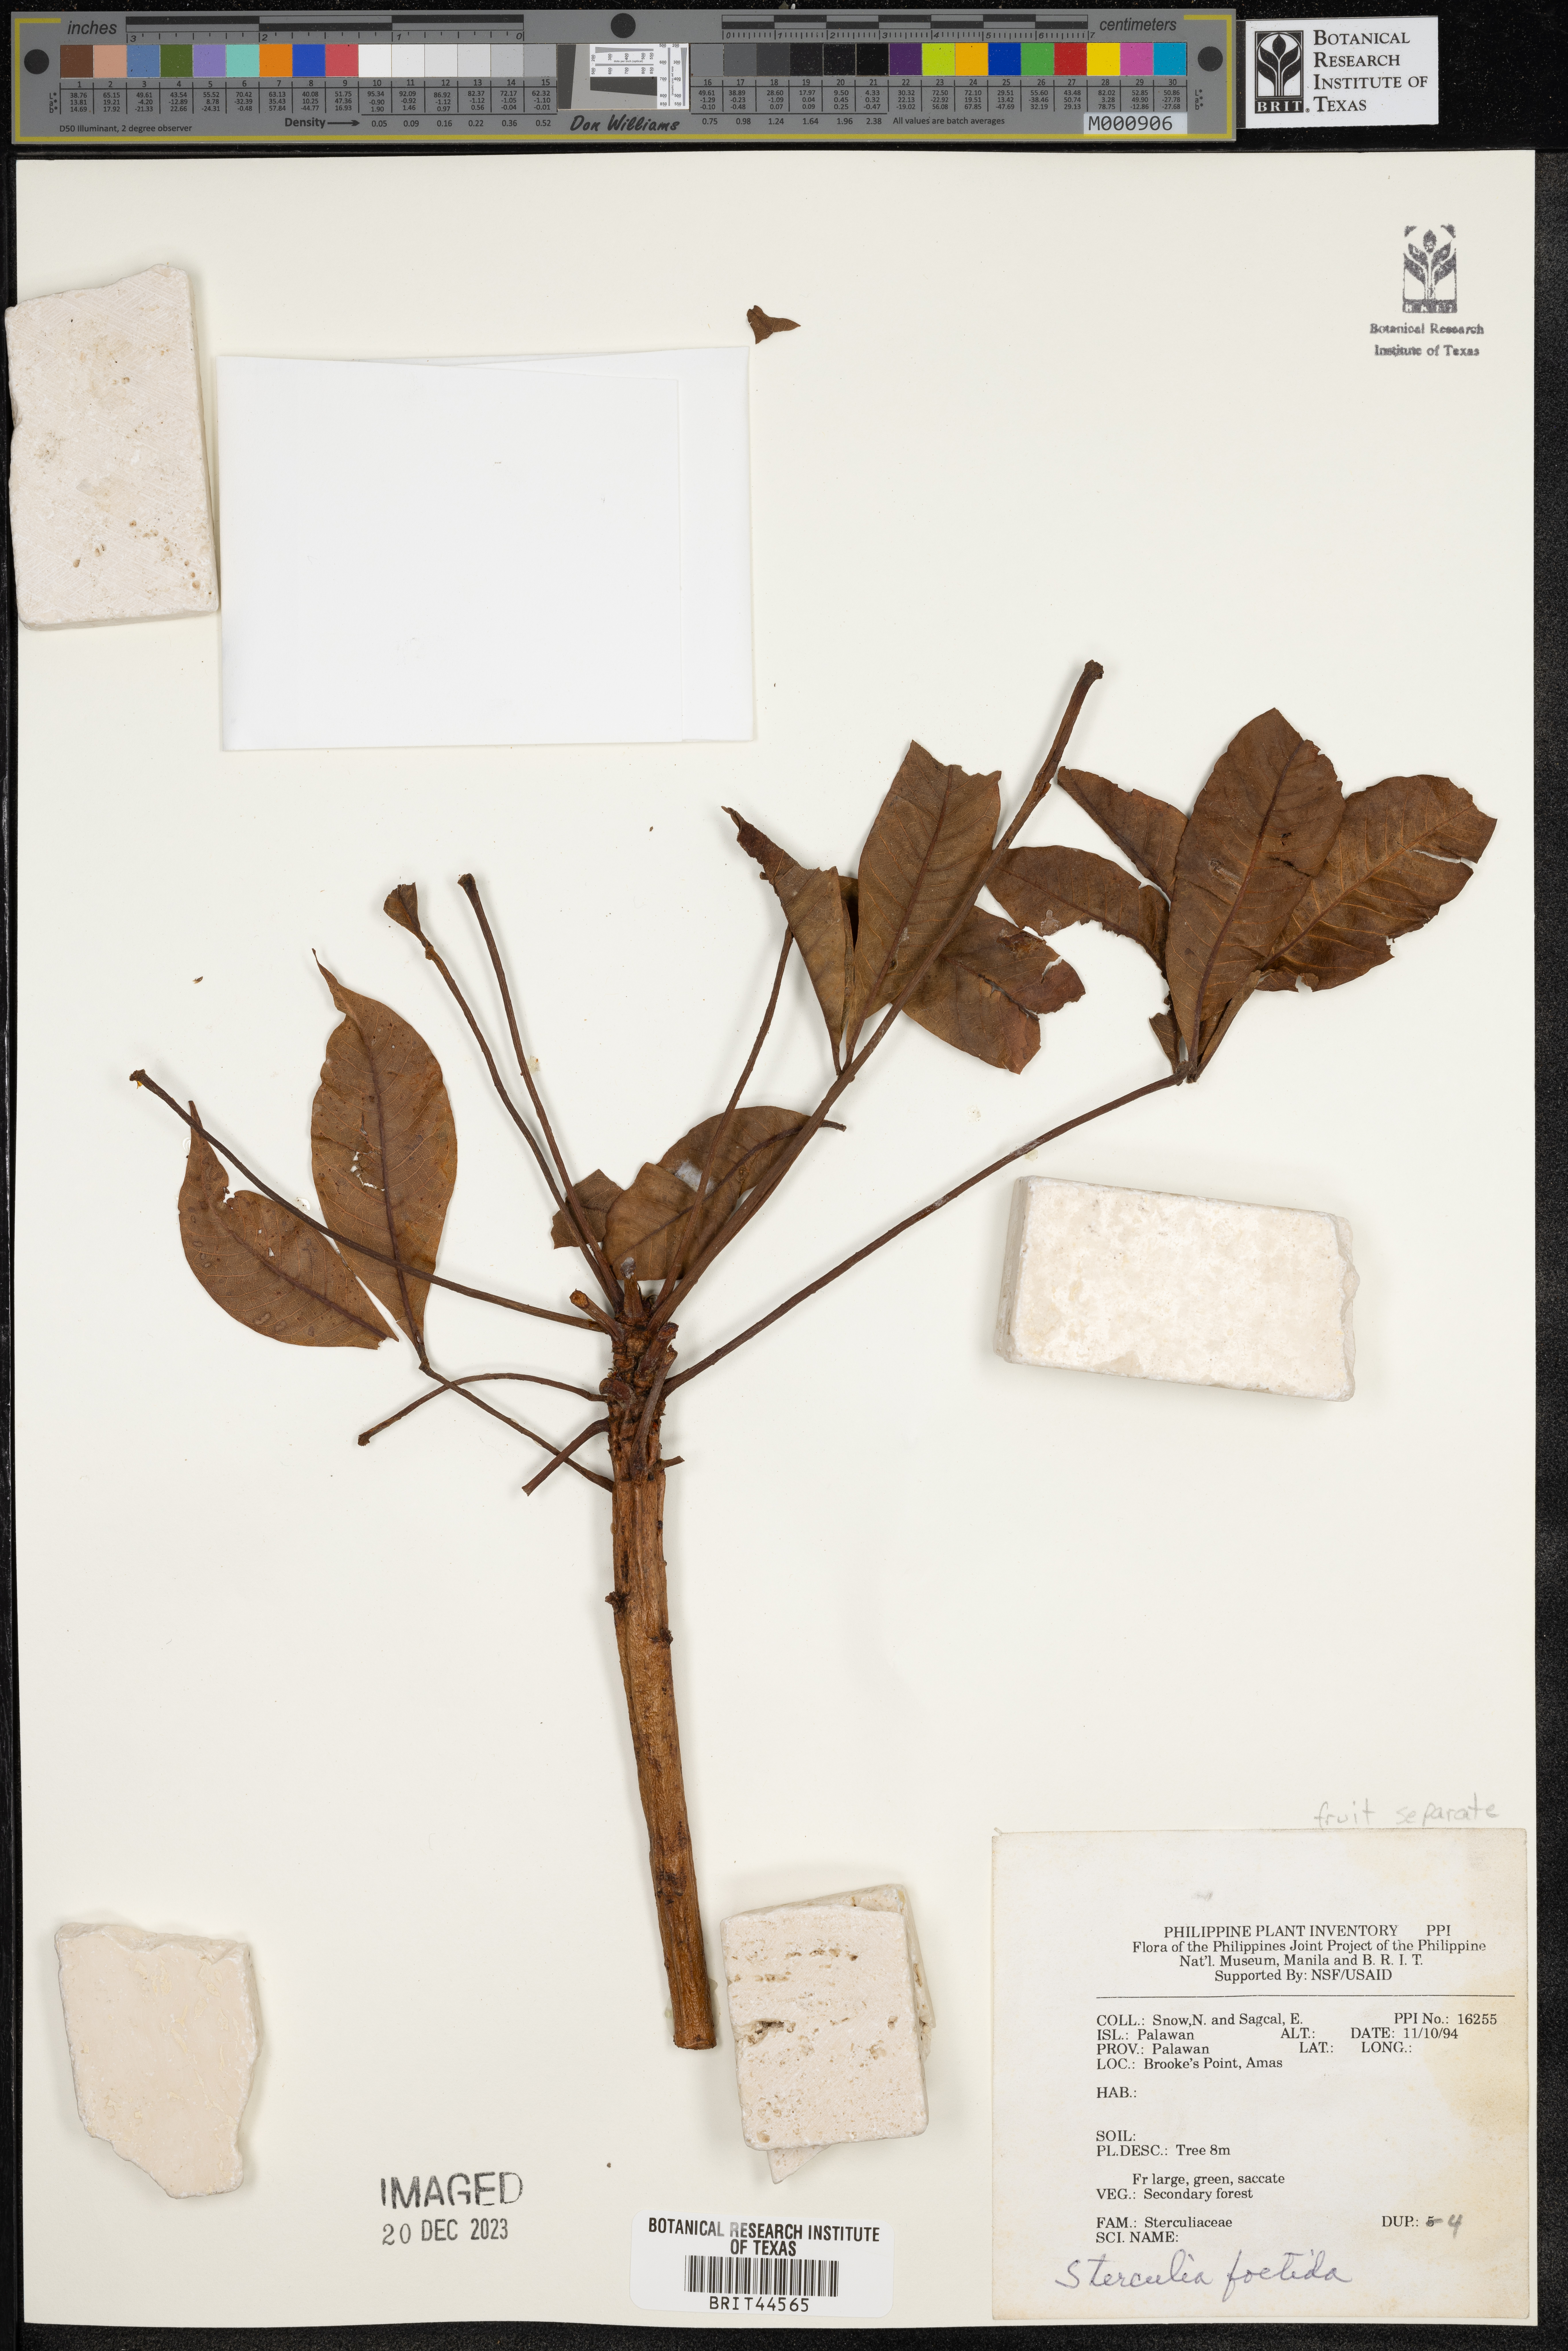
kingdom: Plantae
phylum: Tracheophyta
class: Magnoliopsida
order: Malvales
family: Malvaceae
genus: Sterculia
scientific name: Sterculia foetida
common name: Hazel sterculia
